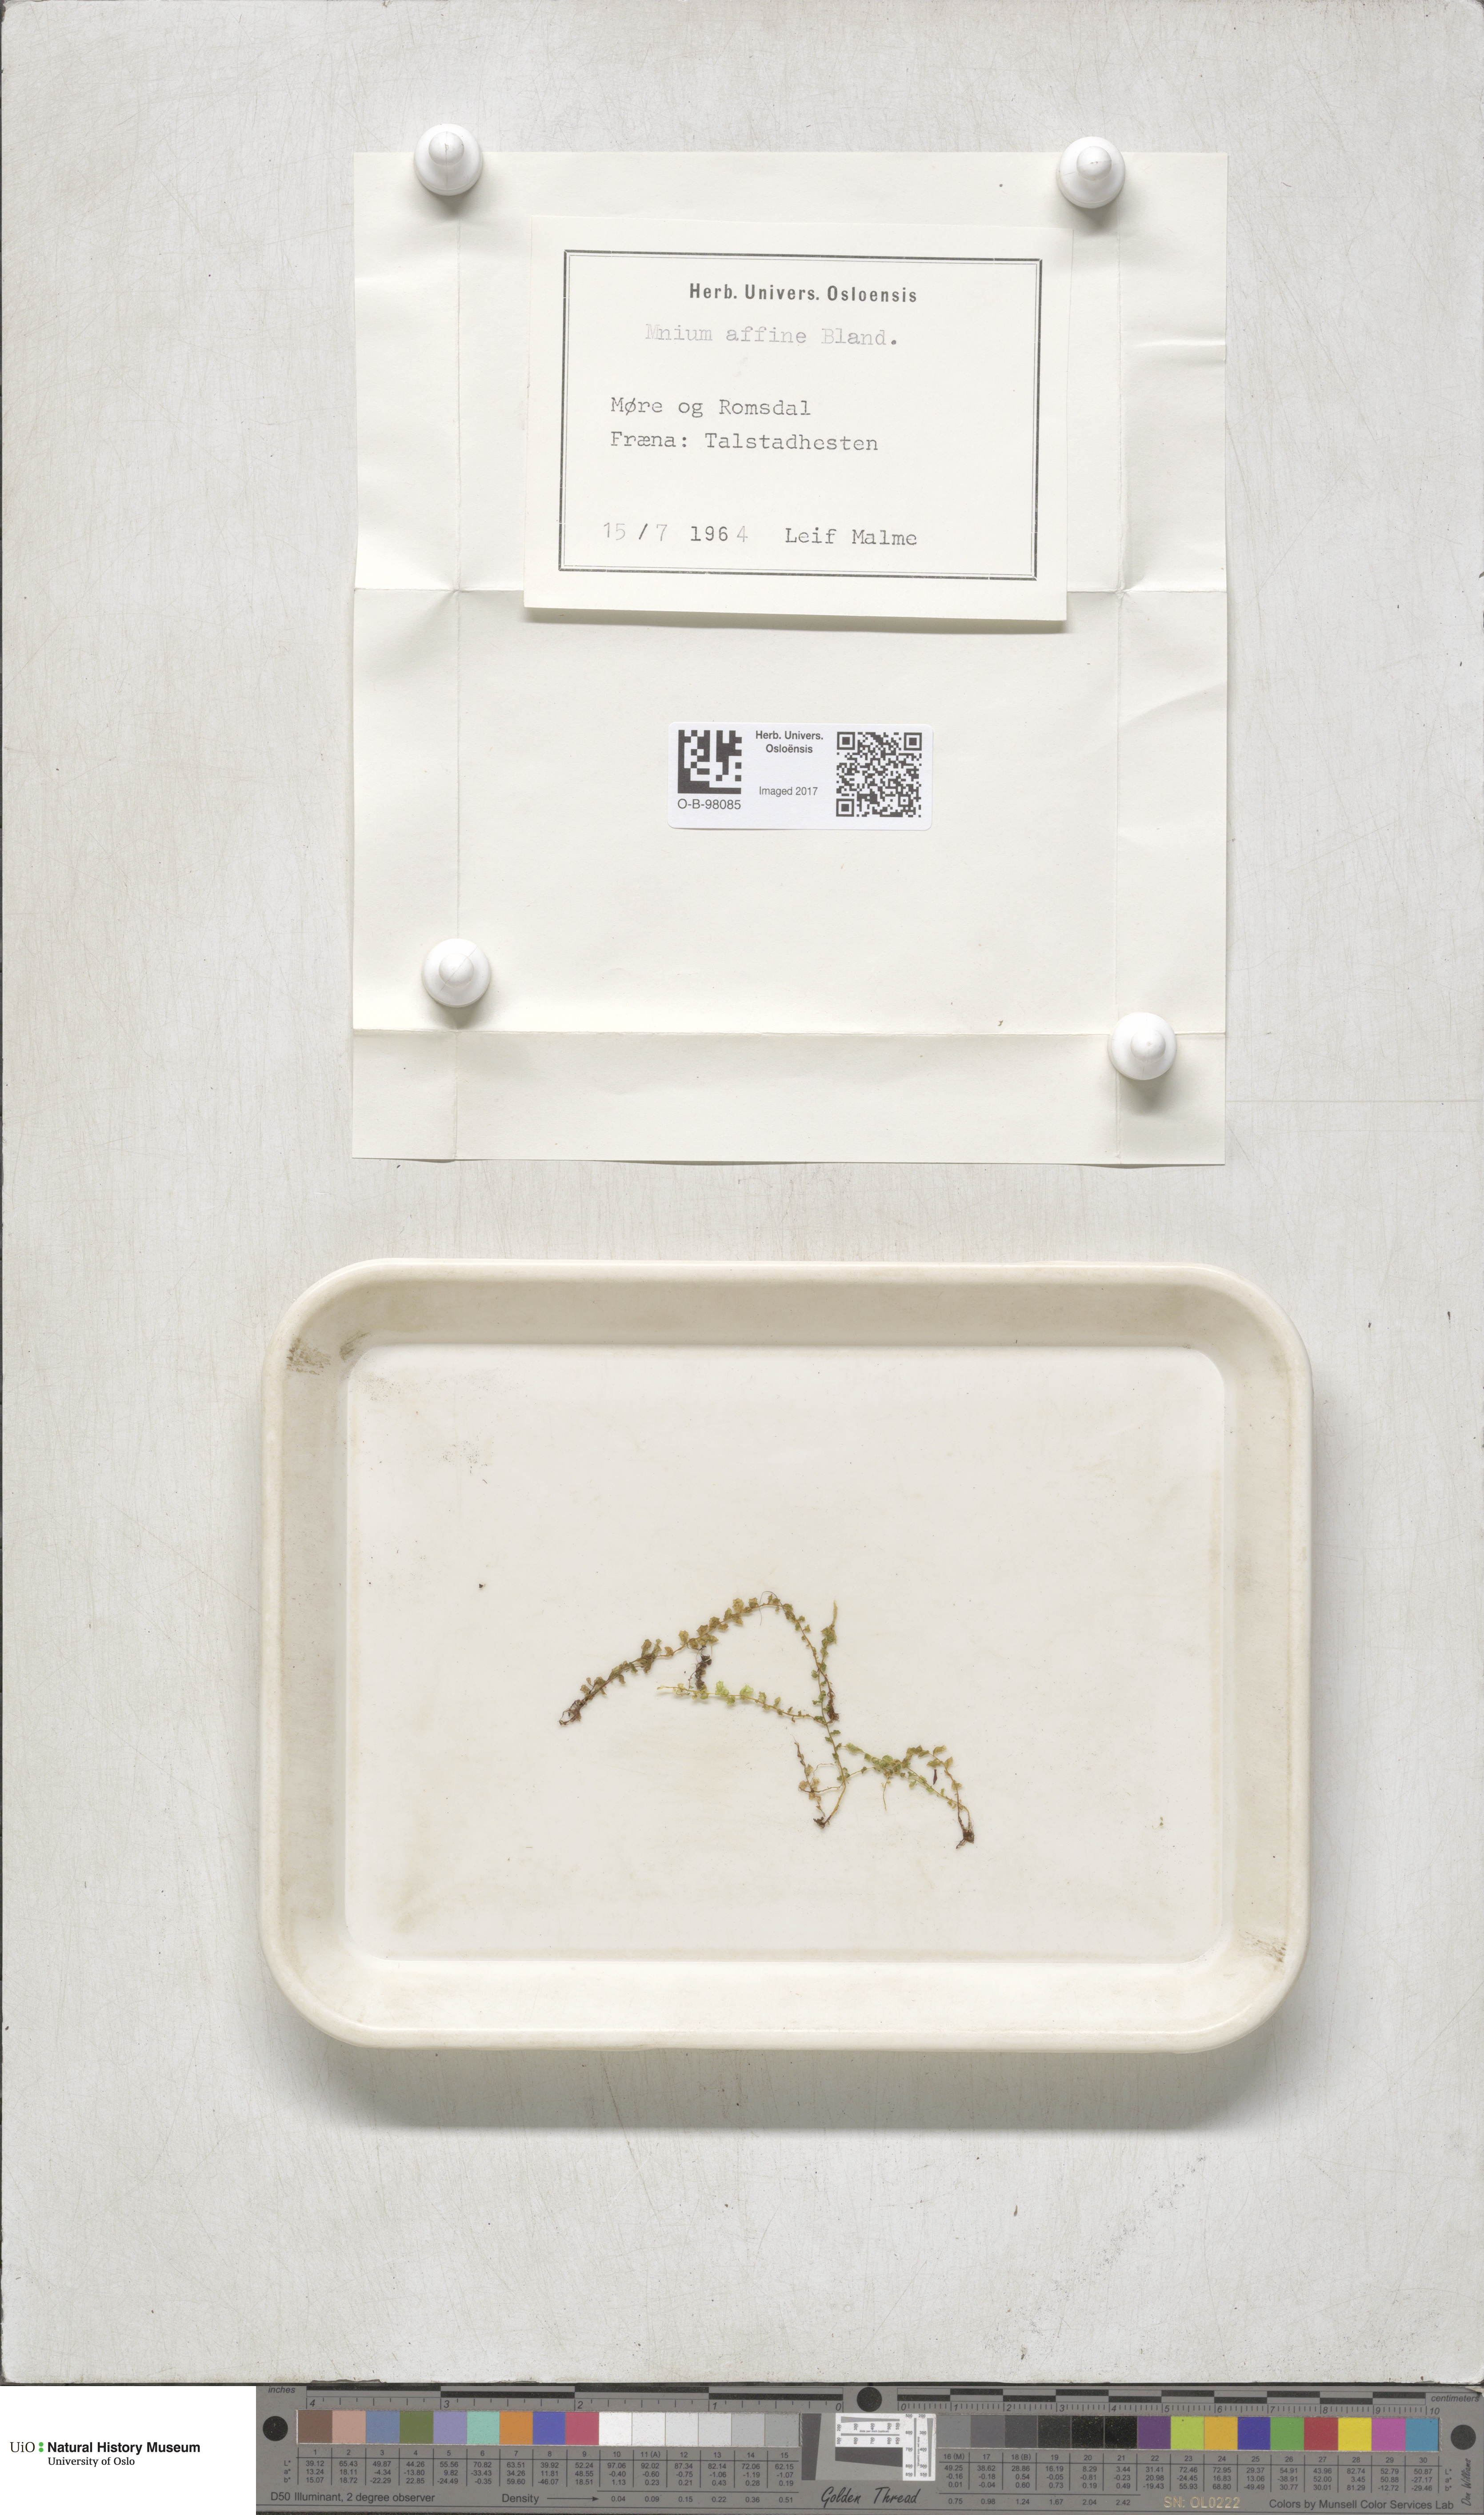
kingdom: Plantae
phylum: Bryophyta
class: Bryopsida
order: Bryales
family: Mniaceae
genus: Plagiomnium
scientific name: Plagiomnium affine
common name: Many-fruited thyme-moss
